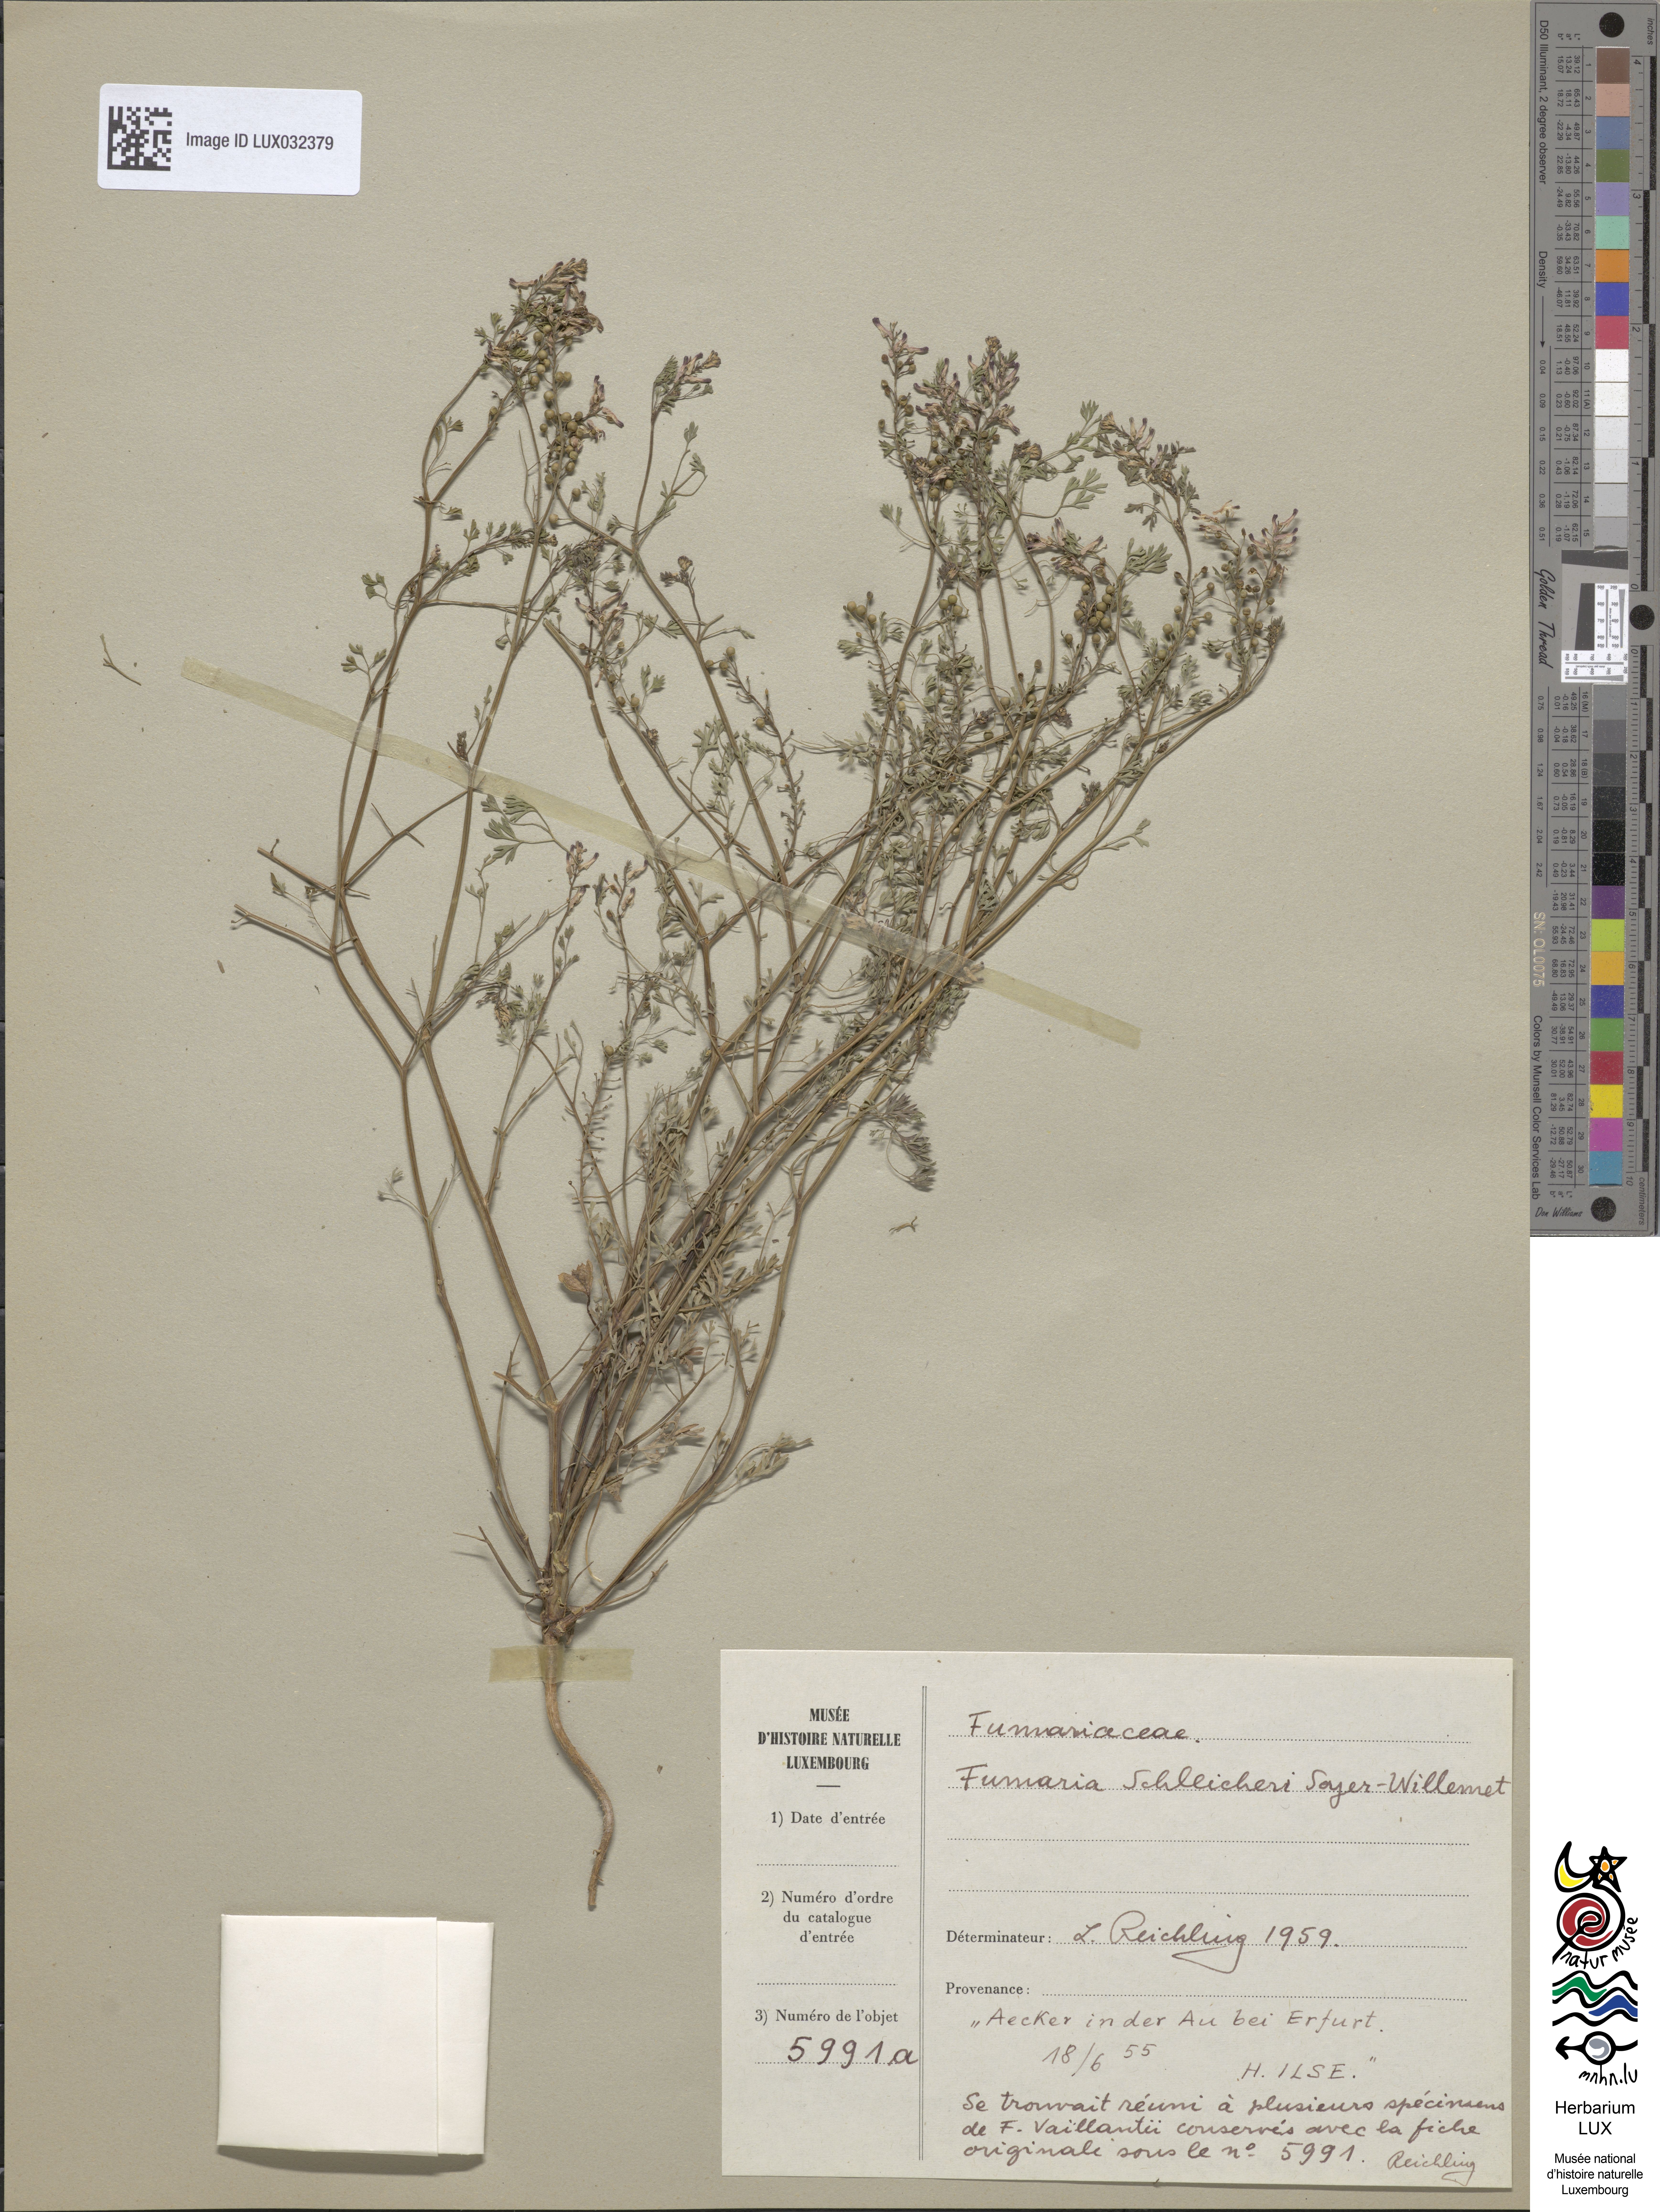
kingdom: Plantae
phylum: Tracheophyta
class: Magnoliopsida
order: Ranunculales
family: Papaveraceae
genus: Fumaria
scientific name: Fumaria schleicheri
